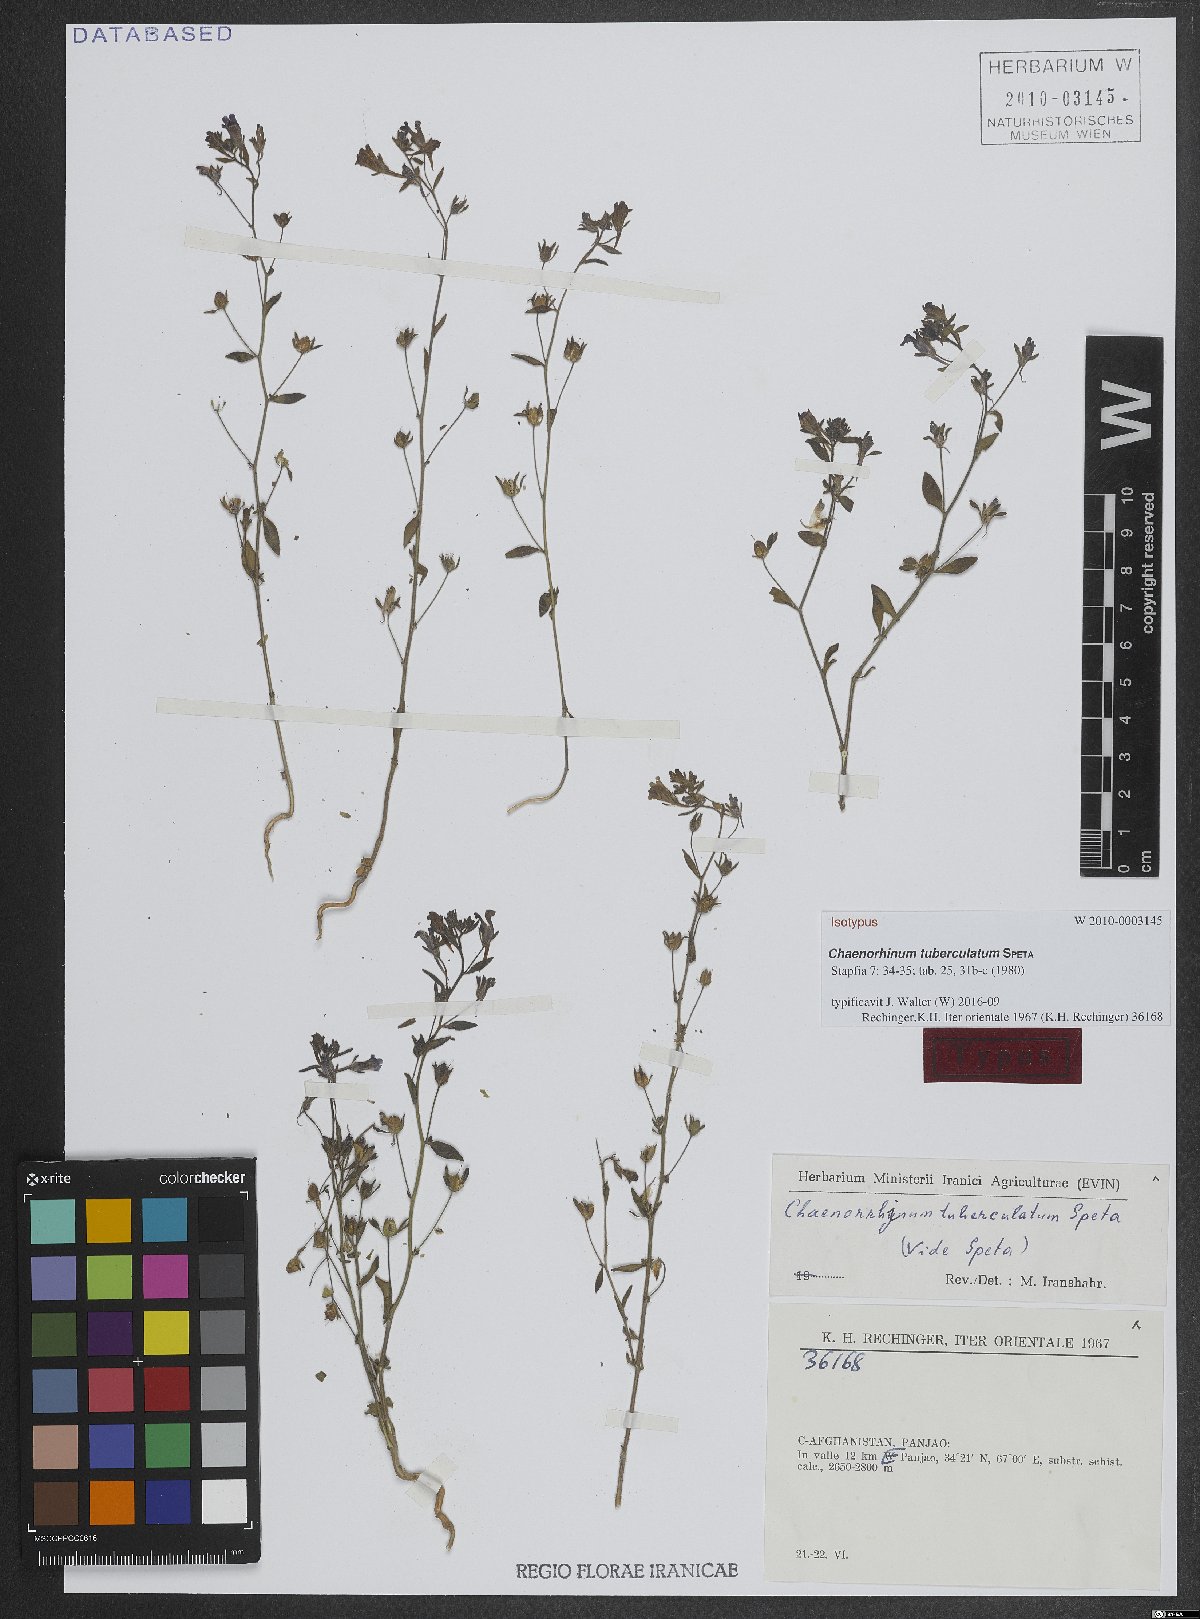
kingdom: Plantae
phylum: Tracheophyta
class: Magnoliopsida
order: Lamiales
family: Plantaginaceae
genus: Chaenorhinum
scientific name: Chaenorhinum tuberculatum
